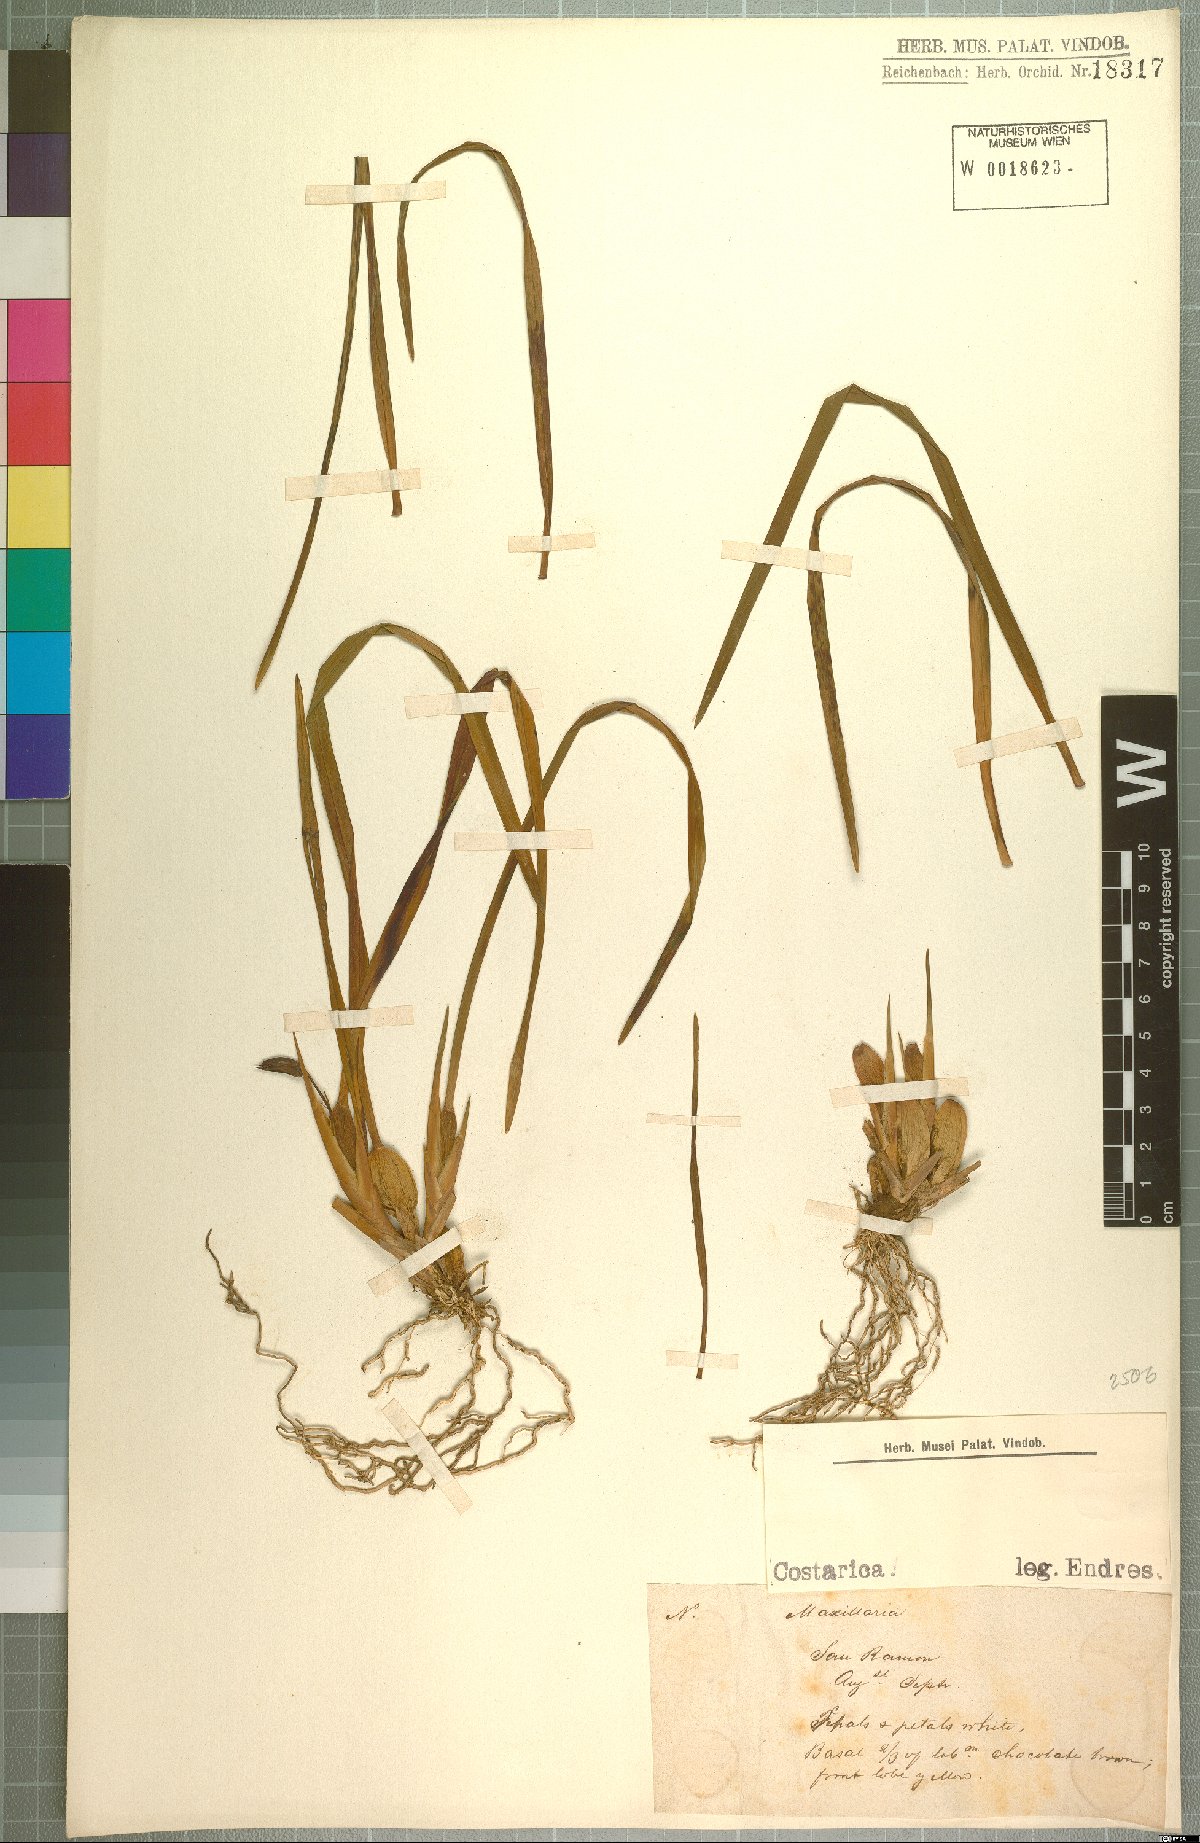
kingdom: Plantae
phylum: Tracheophyta
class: Liliopsida
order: Asparagales
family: Orchidaceae
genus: Maxillaria
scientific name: Maxillaria
